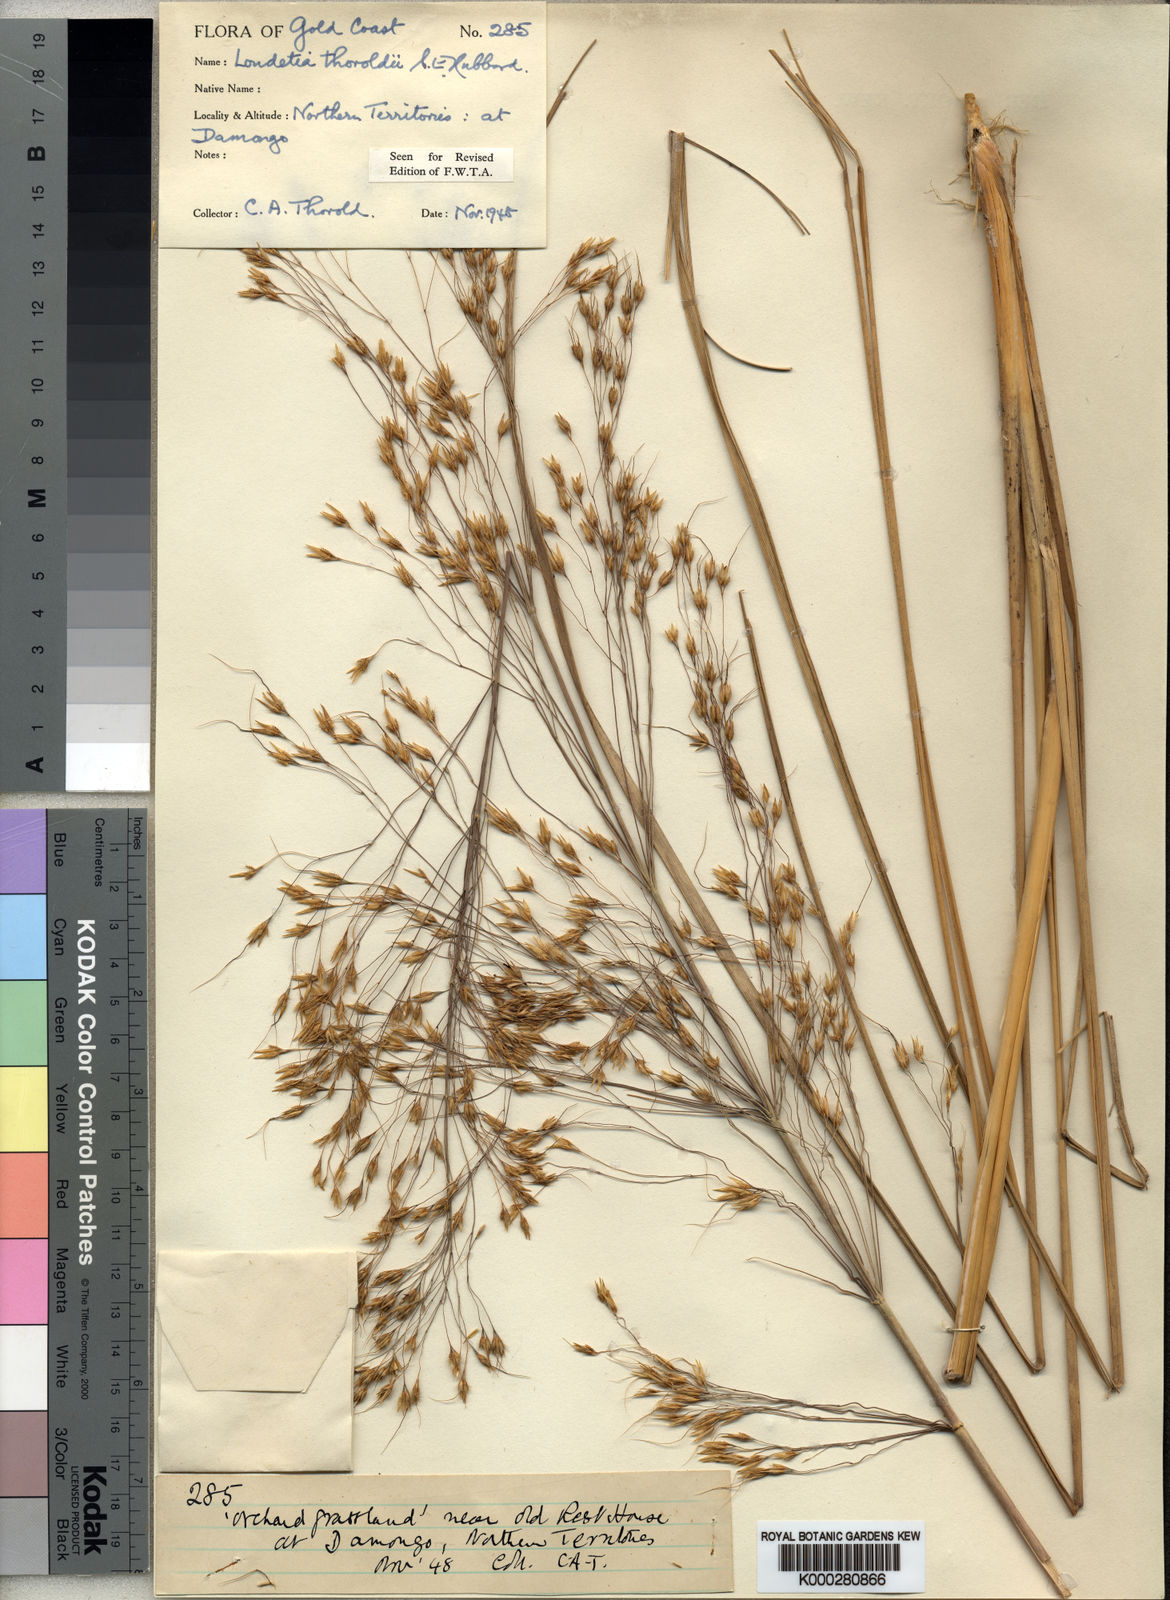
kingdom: Plantae
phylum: Tracheophyta
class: Liliopsida
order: Poales
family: Poaceae
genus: Loudetiopsis
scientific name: Loudetiopsis thoroldii
